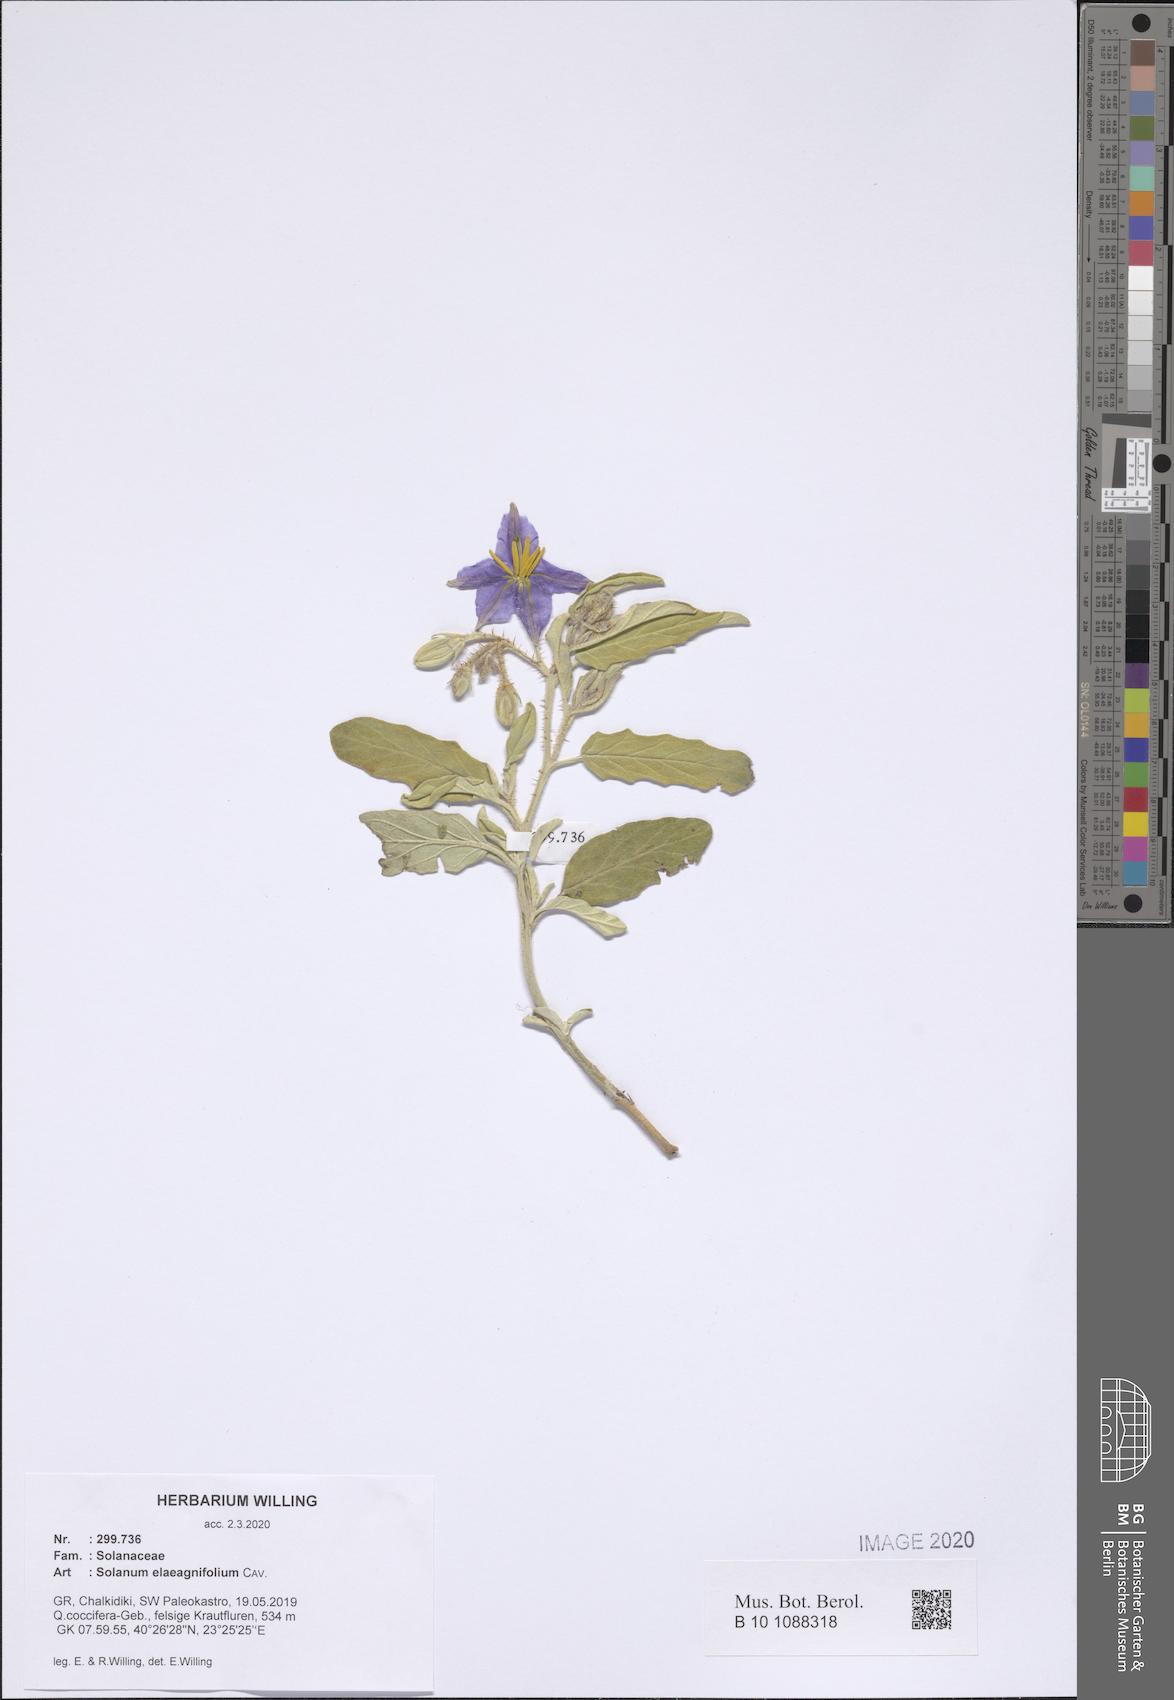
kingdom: Plantae
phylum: Tracheophyta
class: Magnoliopsida
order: Solanales
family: Solanaceae
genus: Solanum
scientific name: Solanum elaeagnifolium
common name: Silverleaf nightshade
